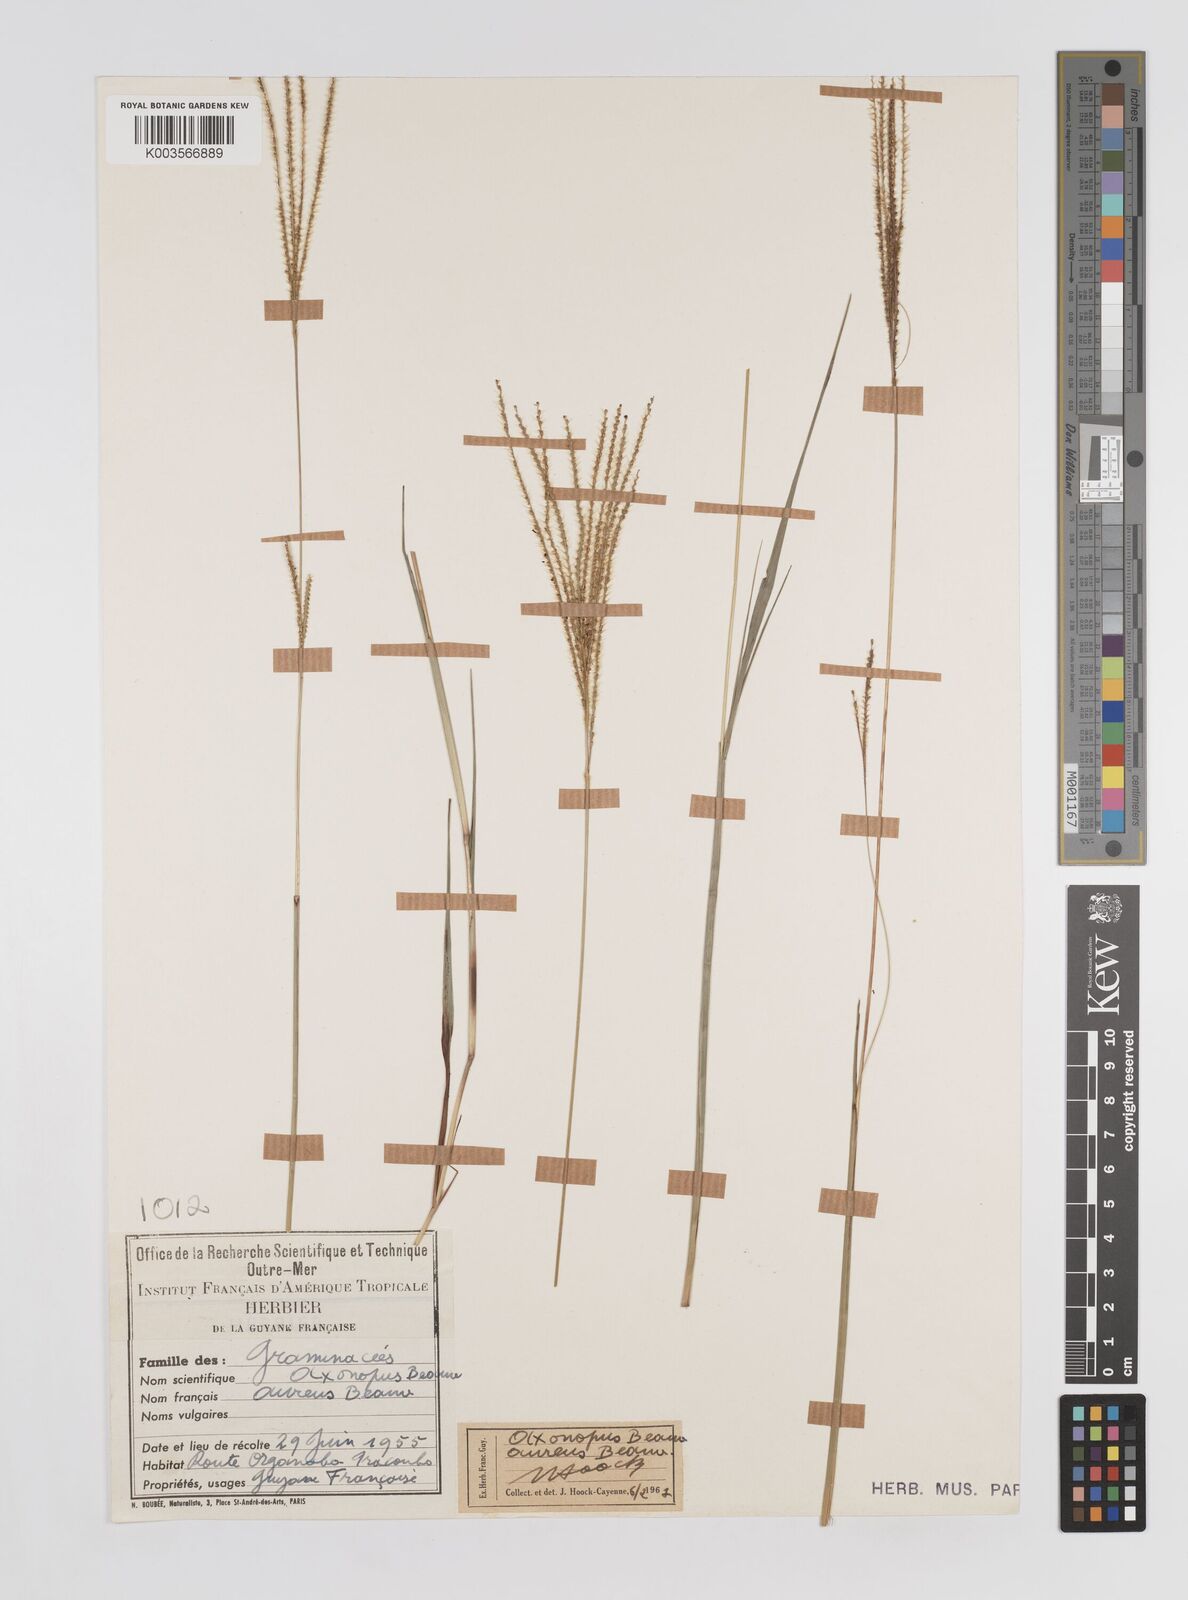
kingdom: Plantae
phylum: Tracheophyta
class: Liliopsida
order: Poales
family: Poaceae
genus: Axonopus
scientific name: Axonopus aureus
